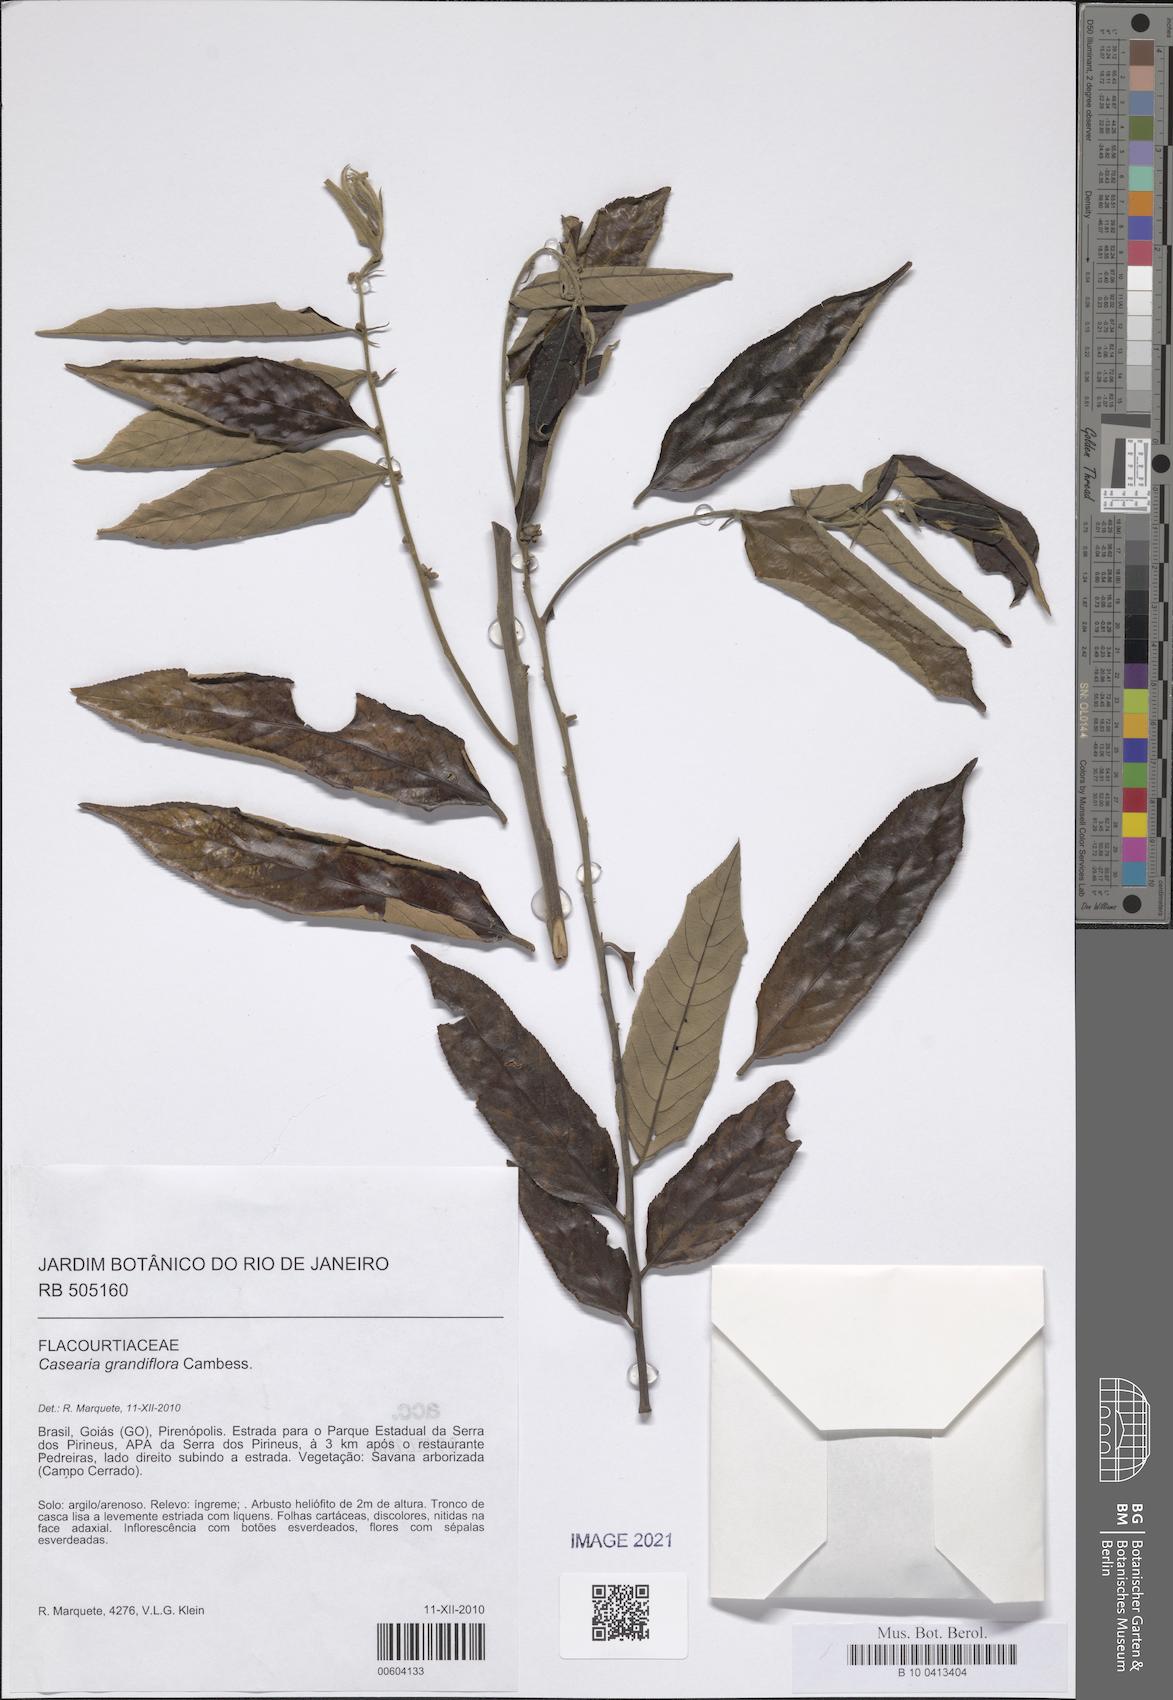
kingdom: Plantae
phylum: Tracheophyta
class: Magnoliopsida
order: Malpighiales
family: Salicaceae
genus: Casearia
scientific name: Casearia grandiflora
